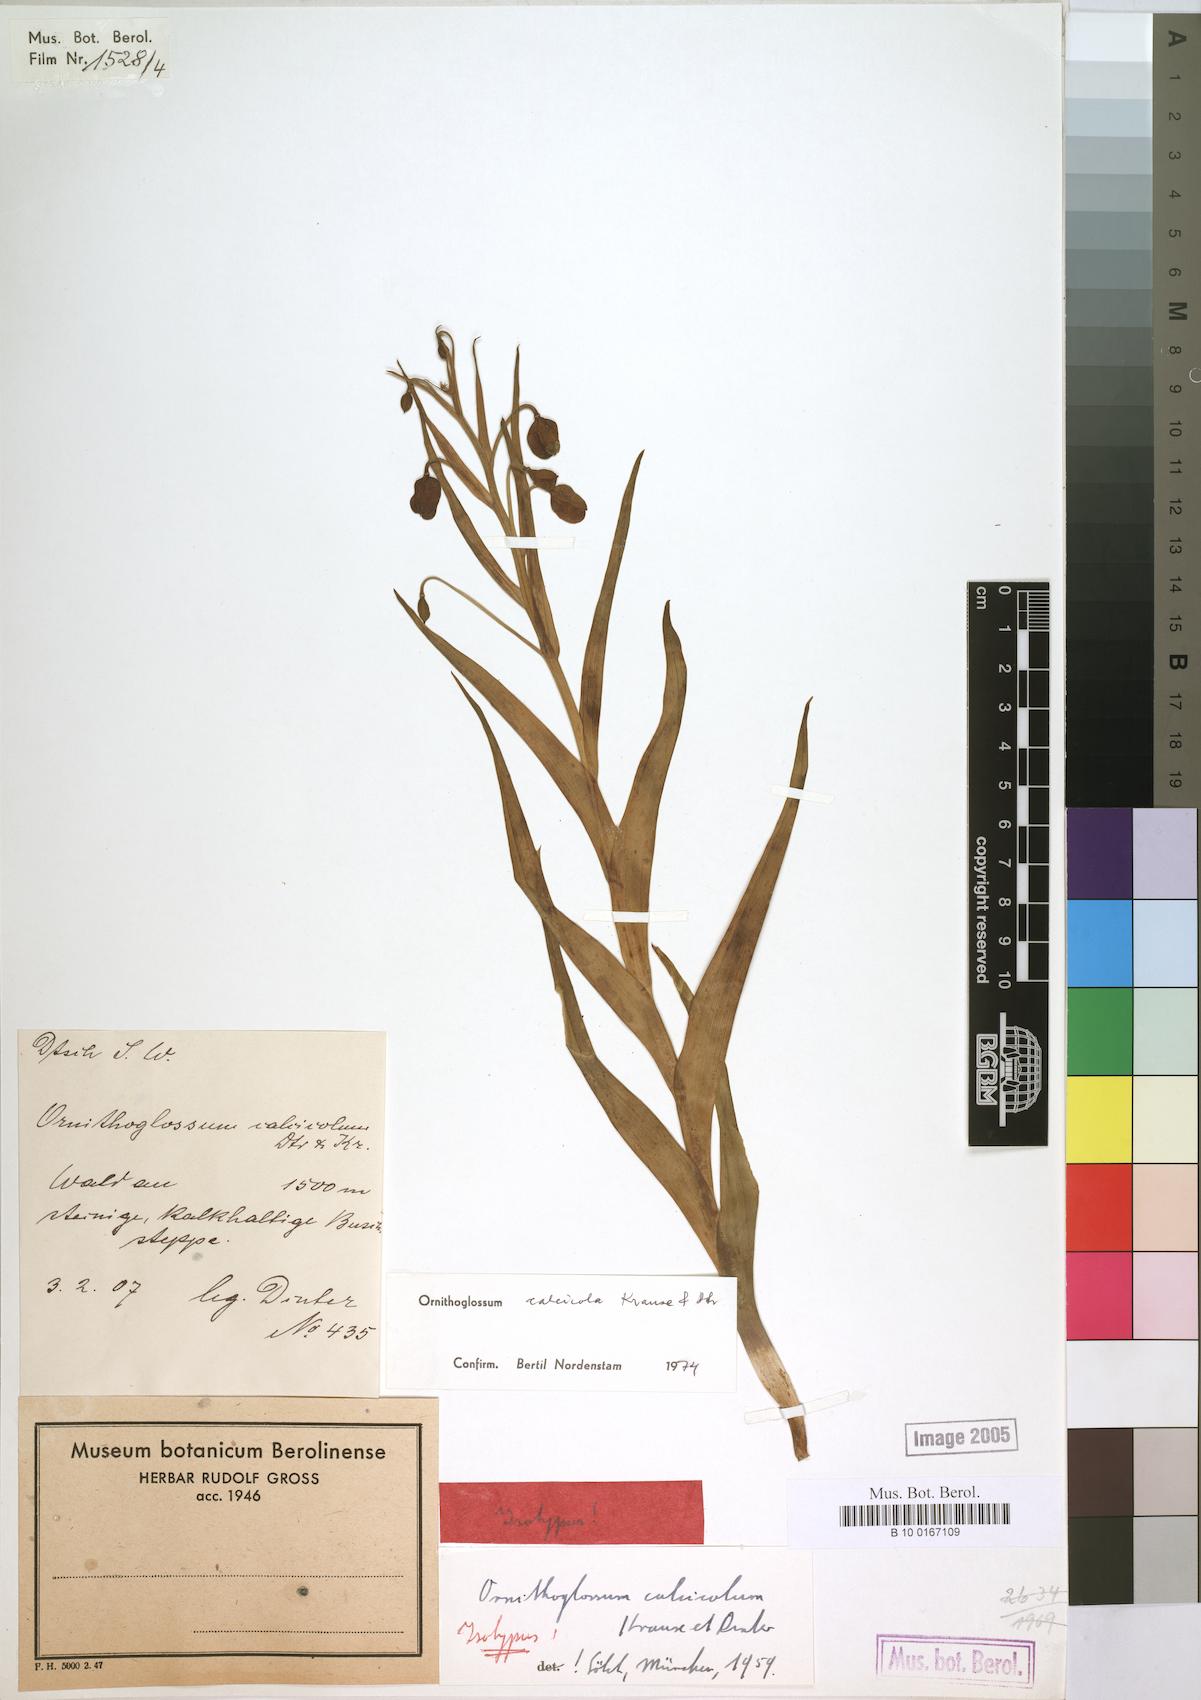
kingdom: Plantae
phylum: Tracheophyta
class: Liliopsida
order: Liliales
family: Colchicaceae
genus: Ornithoglossum
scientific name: Ornithoglossum calcicola
